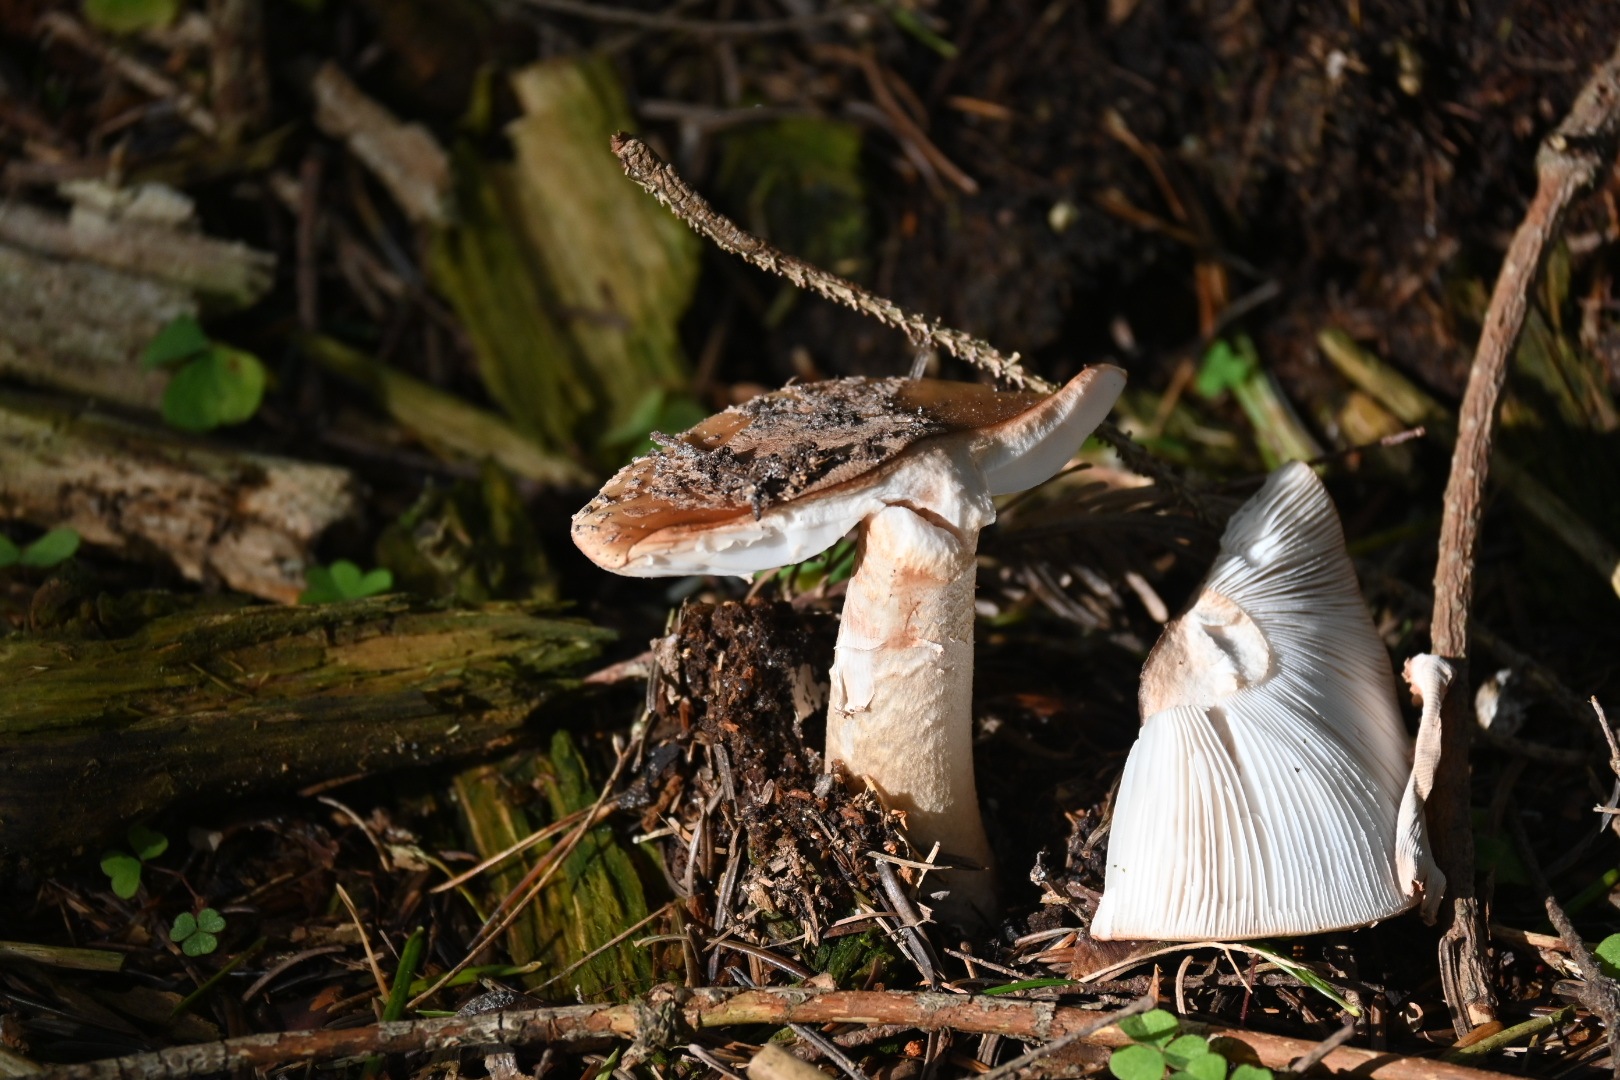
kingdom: Fungi
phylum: Basidiomycota
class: Agaricomycetes
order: Agaricales
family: Amanitaceae
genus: Amanita
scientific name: Amanita rubescens
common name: rødmende fluesvamp
